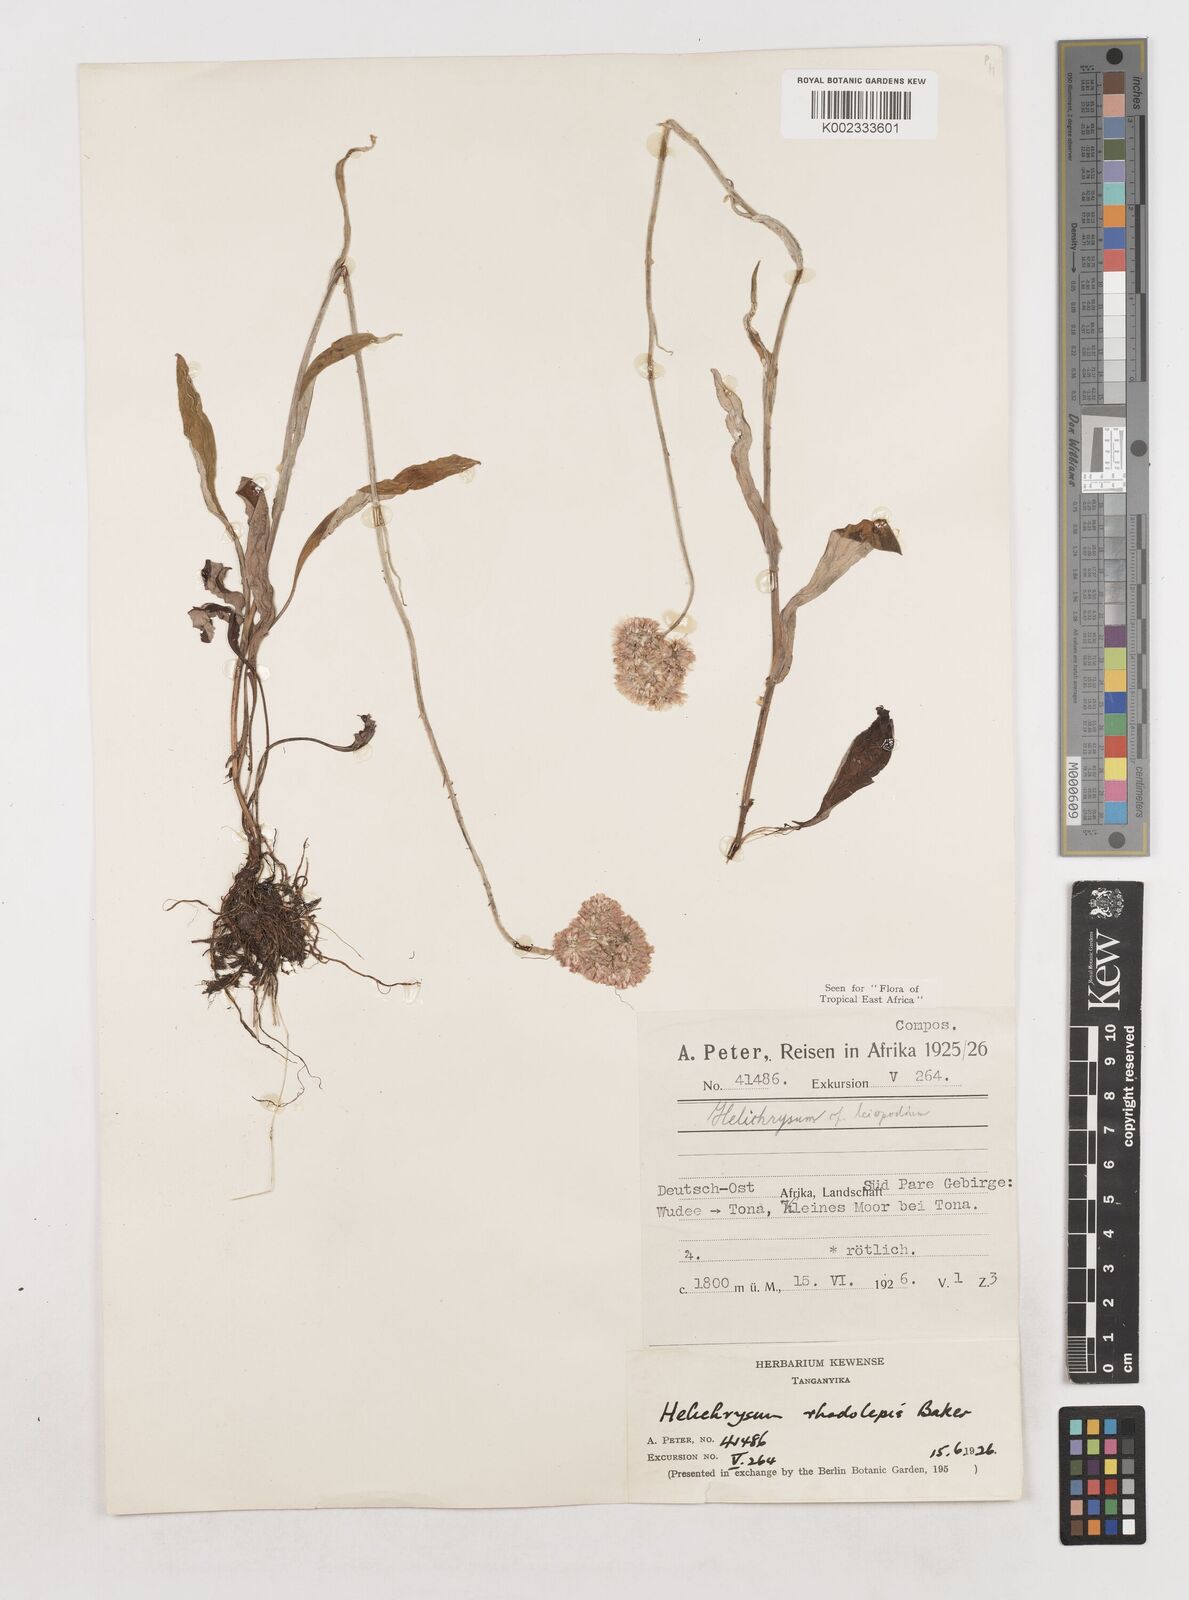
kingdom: Plantae
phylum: Tracheophyta
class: Magnoliopsida
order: Asterales
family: Asteraceae
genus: Helichrysum
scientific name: Helichrysum globosum
